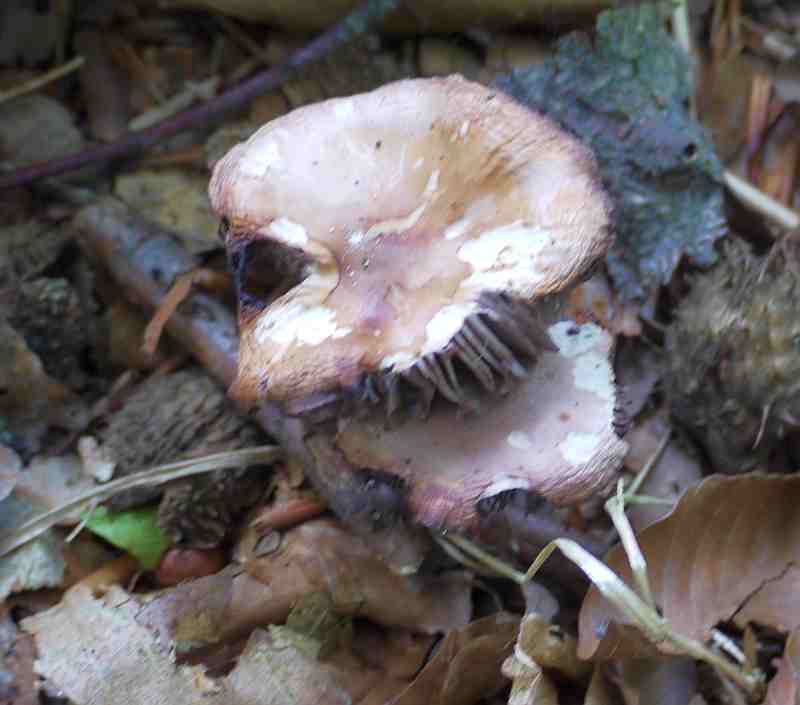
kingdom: Fungi
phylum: Basidiomycota
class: Agaricomycetes
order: Agaricales
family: Mycenaceae
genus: Mycena
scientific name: Mycena
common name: huesvamp
